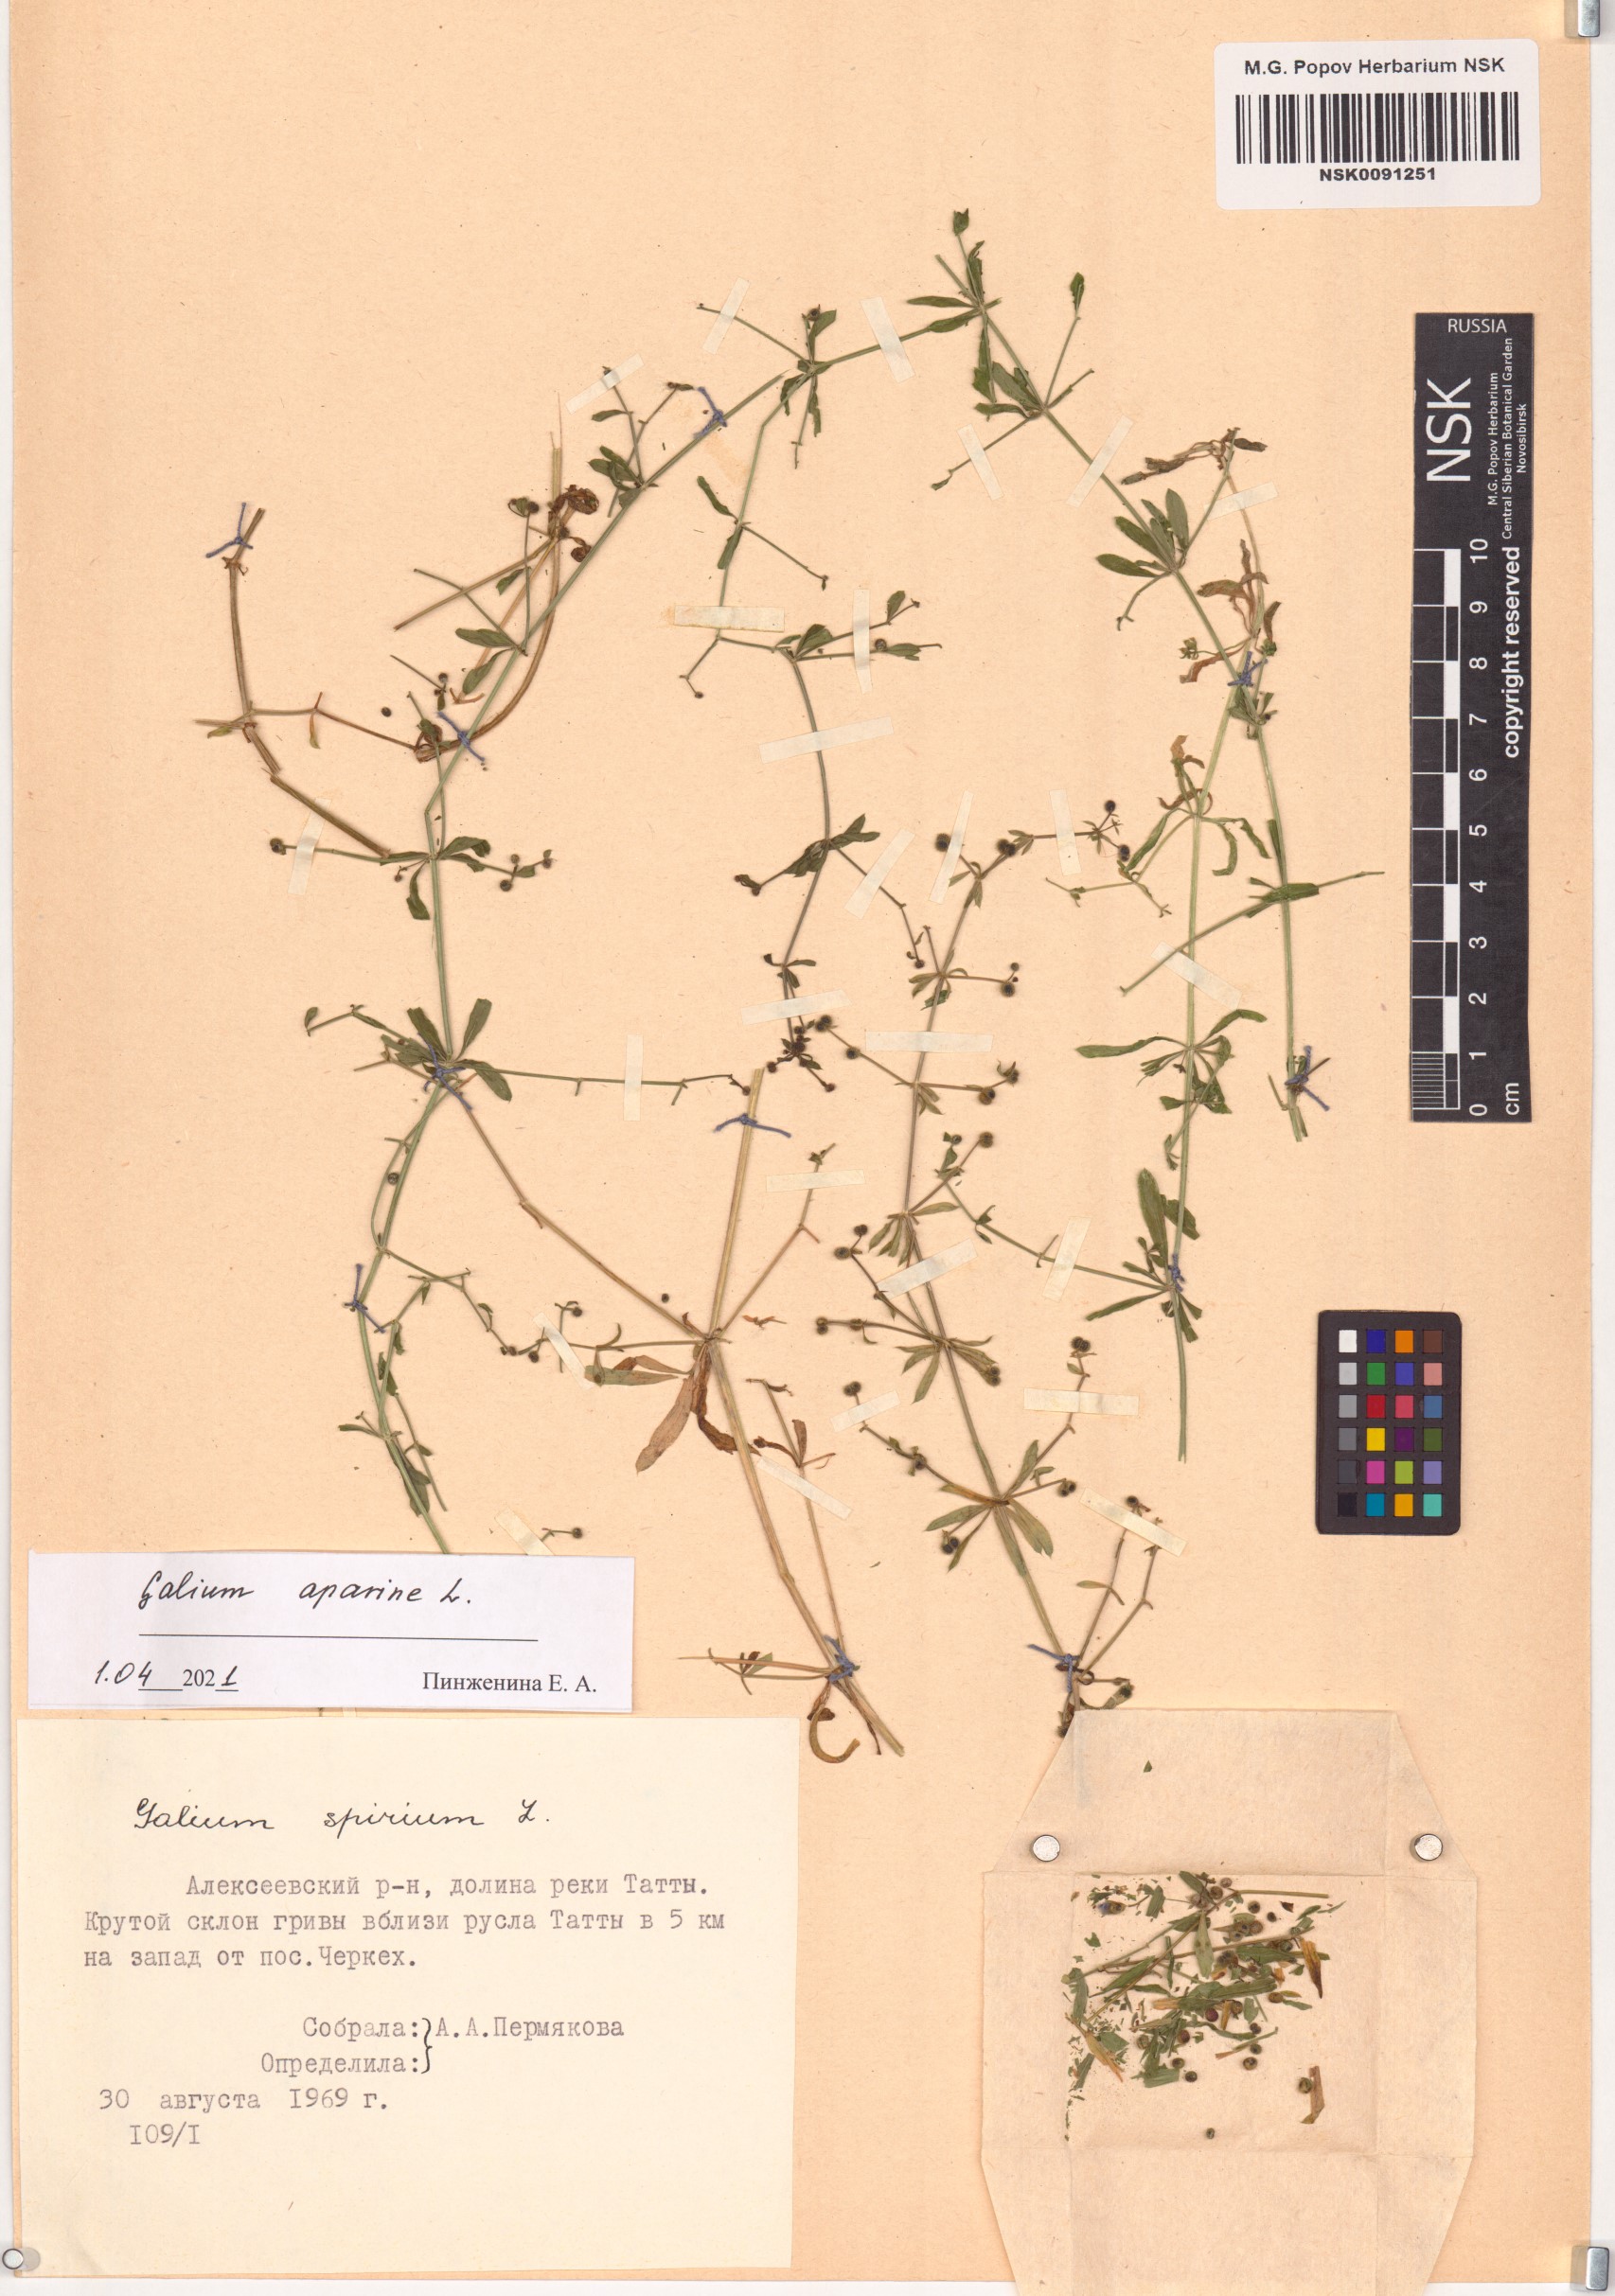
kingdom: Plantae
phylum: Tracheophyta
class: Magnoliopsida
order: Gentianales
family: Rubiaceae
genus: Galium
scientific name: Galium aparine
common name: Cleavers
